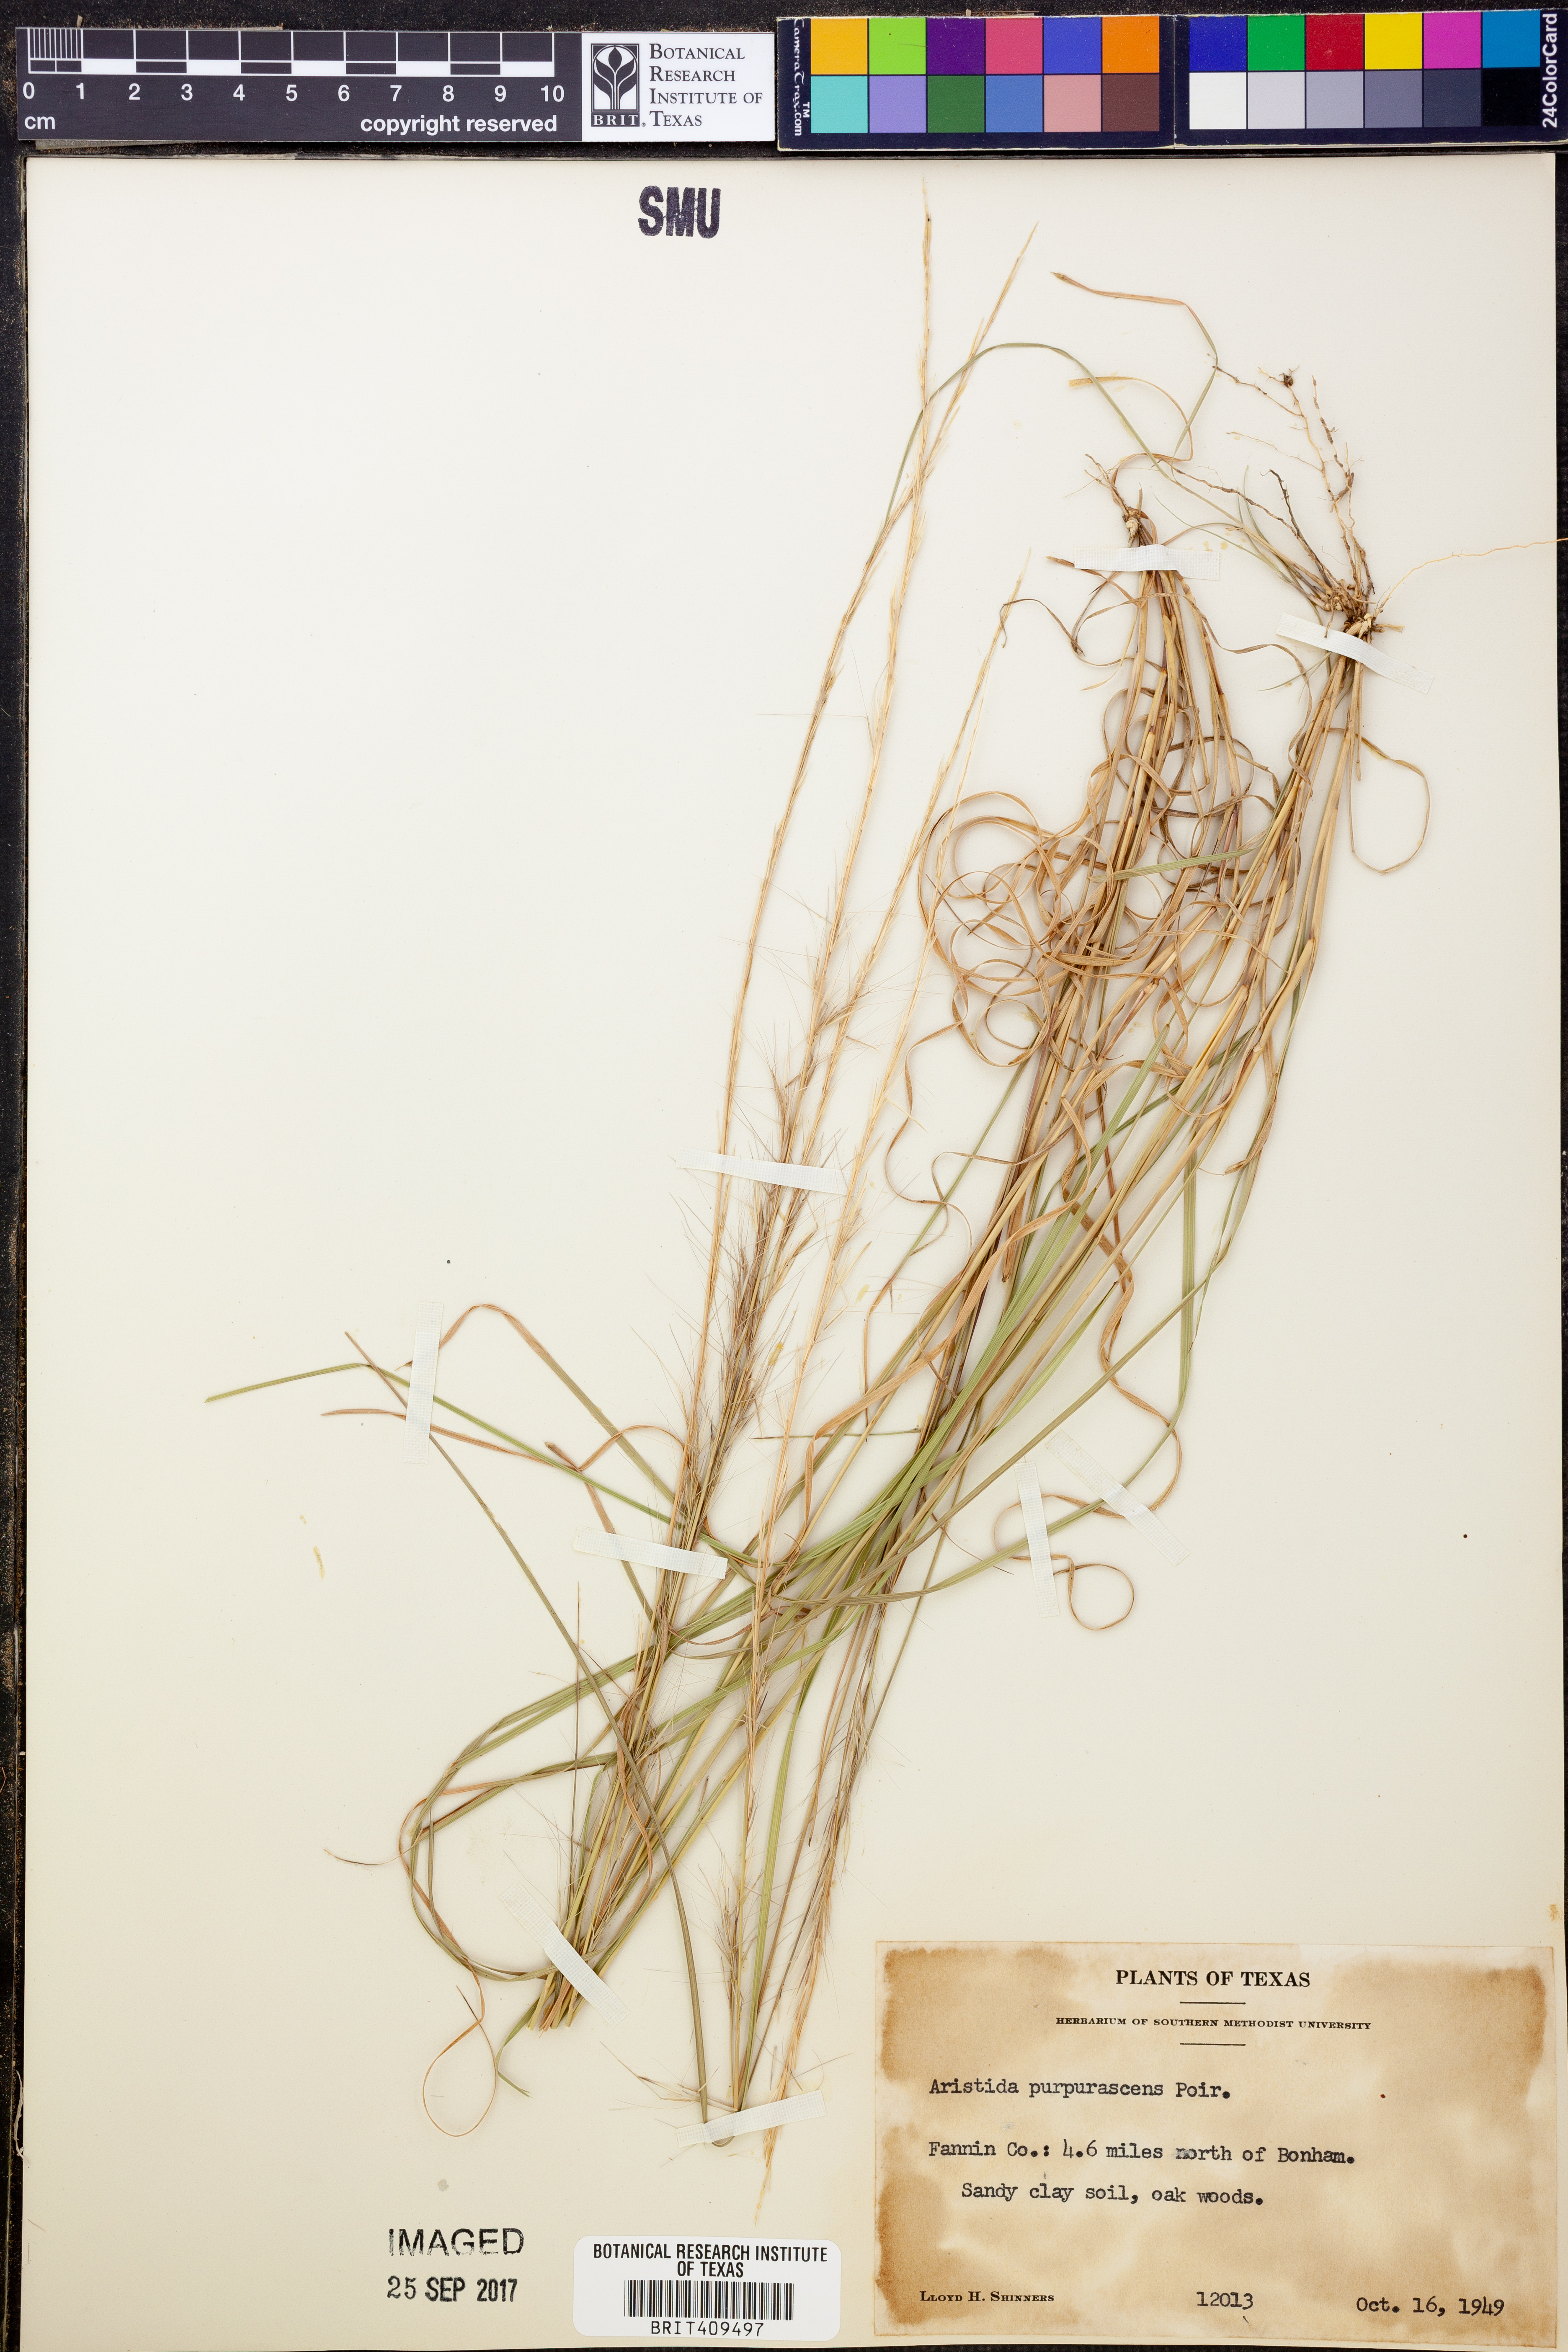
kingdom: Plantae
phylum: Tracheophyta
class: Liliopsida
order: Poales
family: Poaceae
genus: Aristida
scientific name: Aristida purpurascens
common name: Arrow-feather
